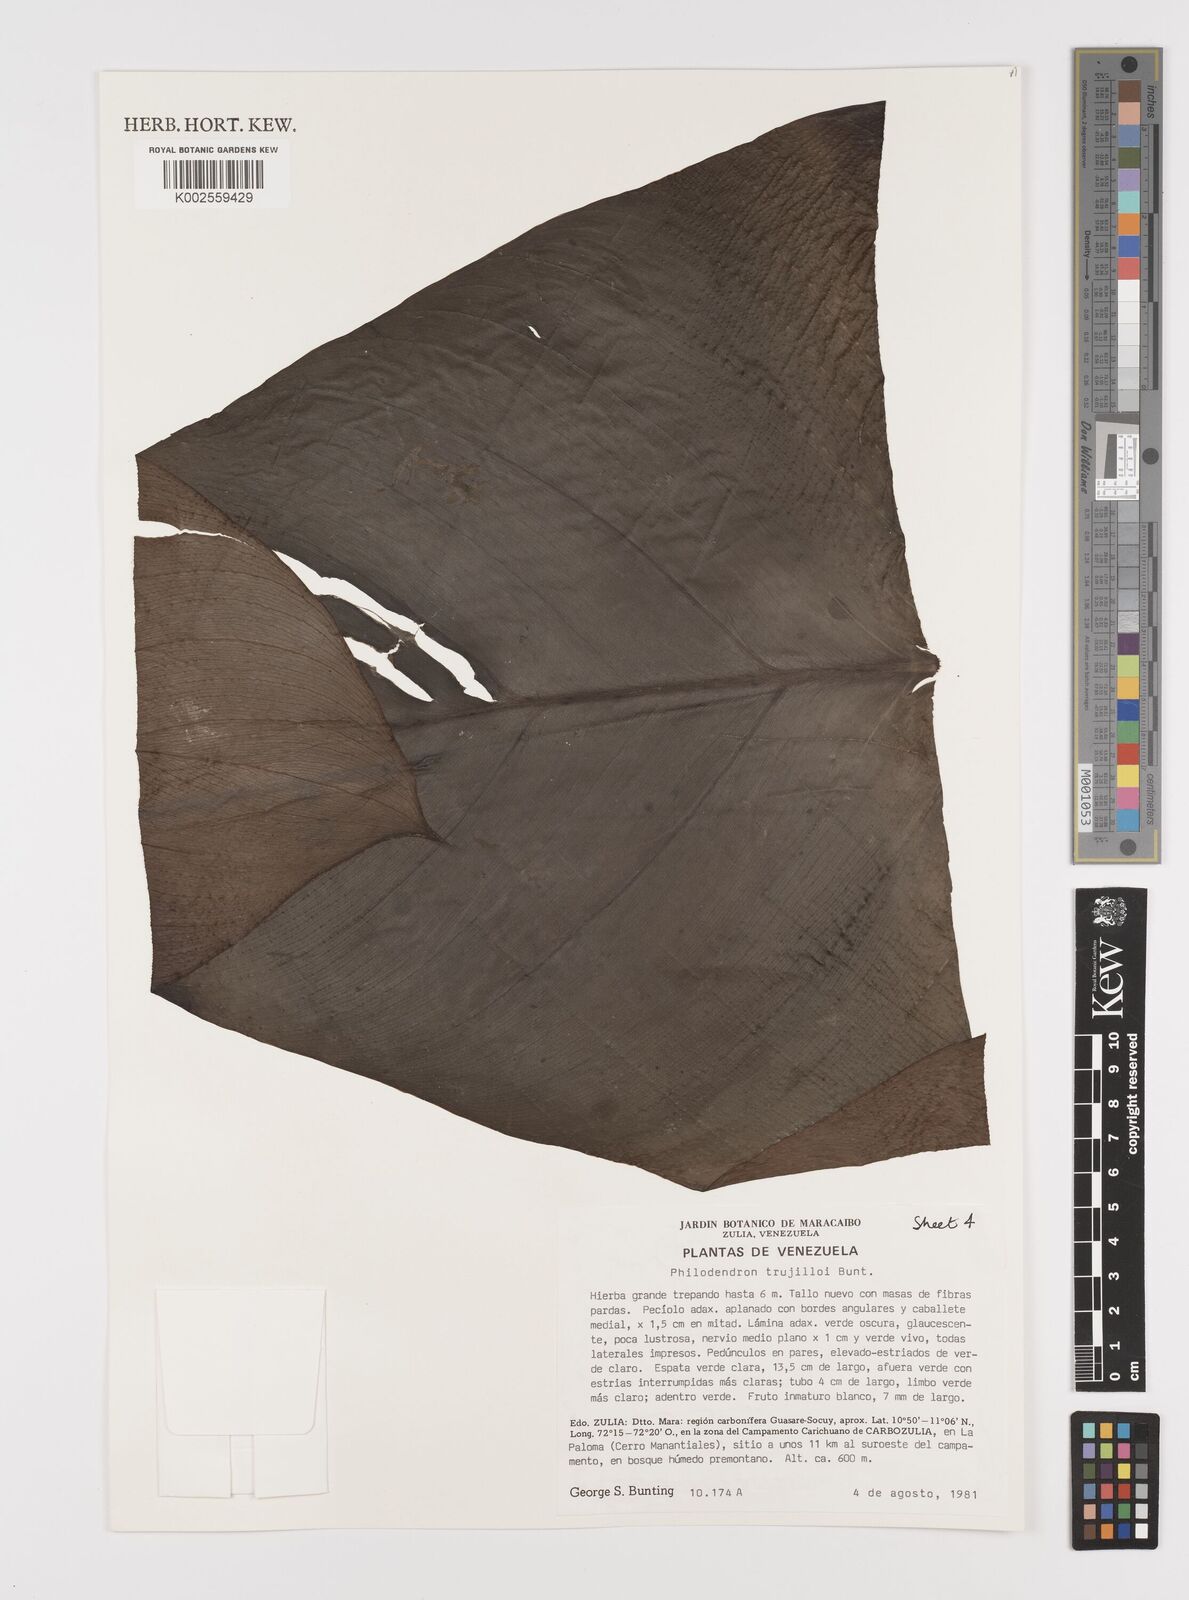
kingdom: Plantae
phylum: Tracheophyta
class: Liliopsida
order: Alismatales
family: Araceae
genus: Philodendron
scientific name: Philodendron trujilloi
